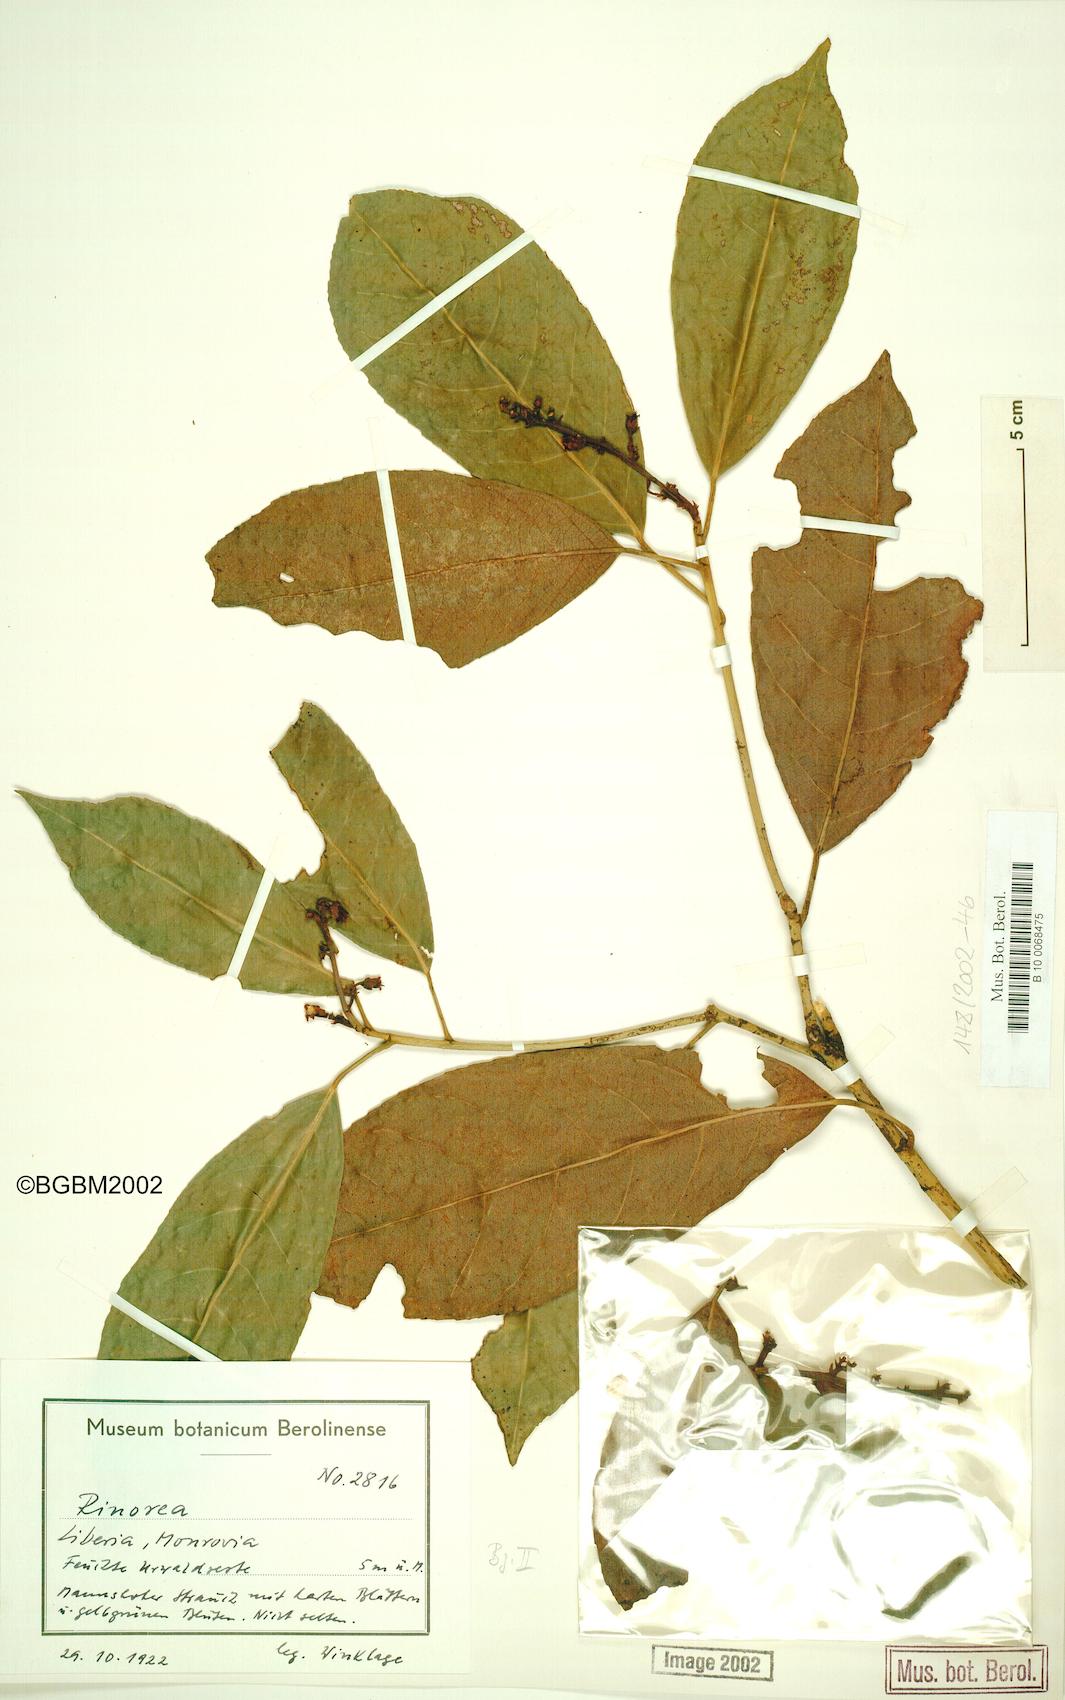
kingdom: Plantae
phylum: Tracheophyta
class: Magnoliopsida
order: Malpighiales
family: Violaceae
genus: Rinorea
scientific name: Rinorea
